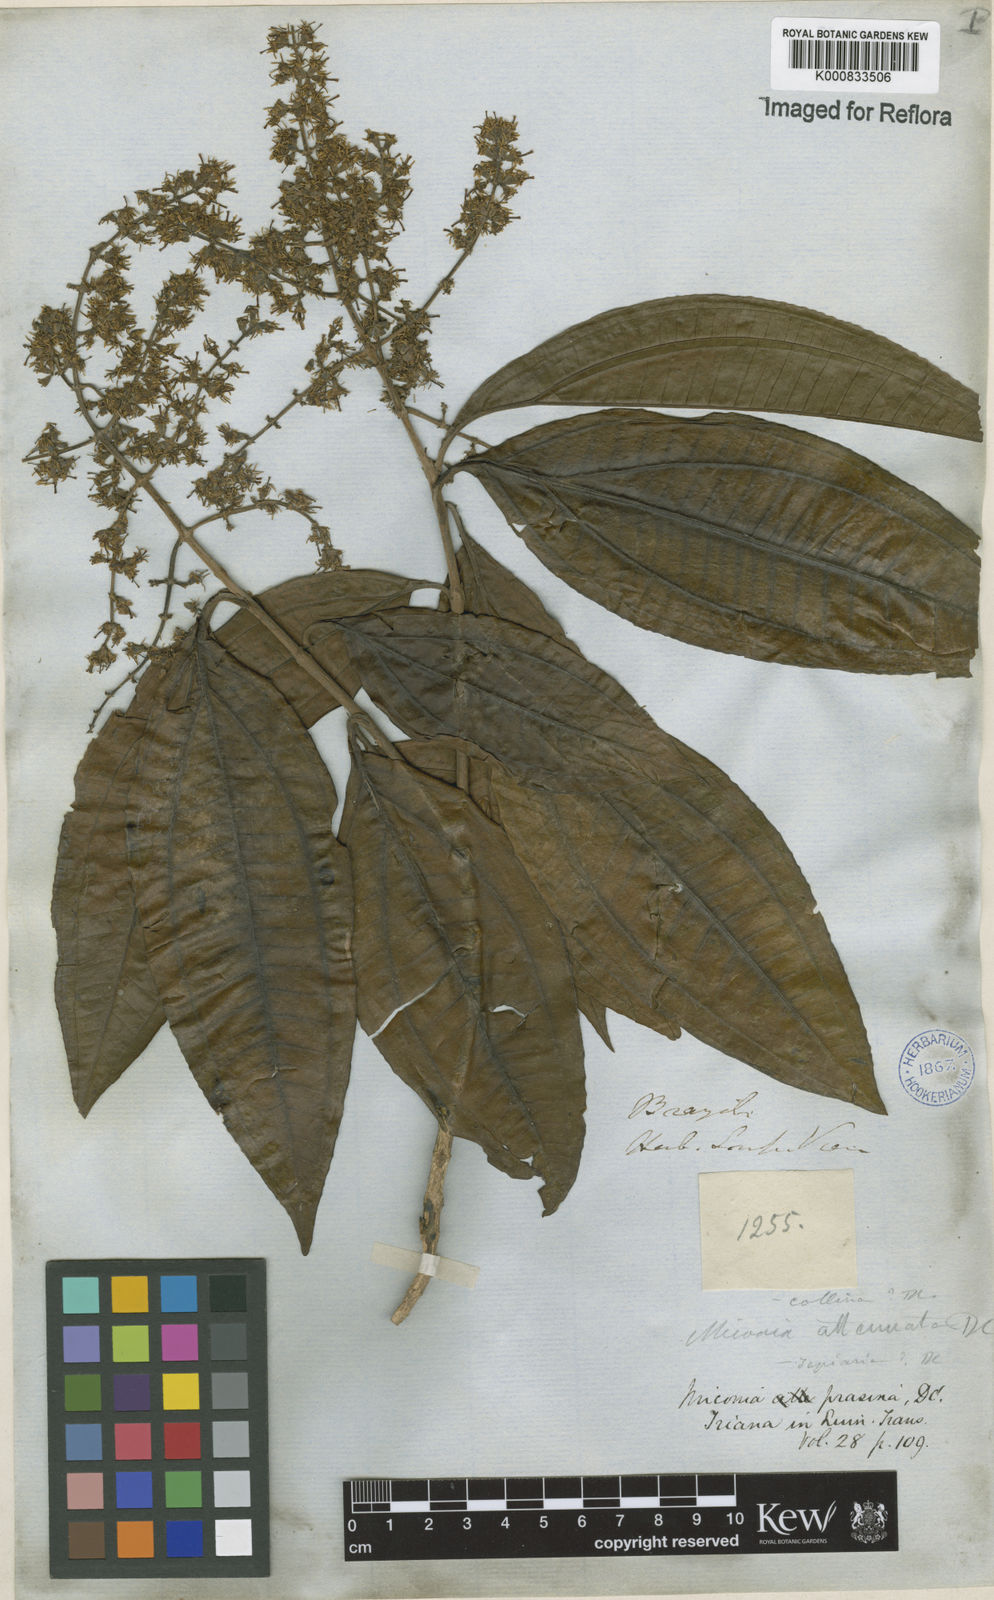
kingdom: Plantae
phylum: Tracheophyta
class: Magnoliopsida
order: Myrtales
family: Melastomataceae
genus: Miconia
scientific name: Miconia prasina
